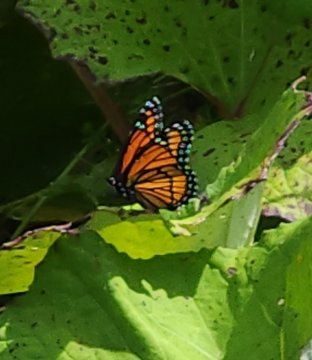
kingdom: Animalia
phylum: Arthropoda
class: Insecta
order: Lepidoptera
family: Nymphalidae
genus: Limenitis
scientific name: Limenitis archippus
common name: Viceroy
